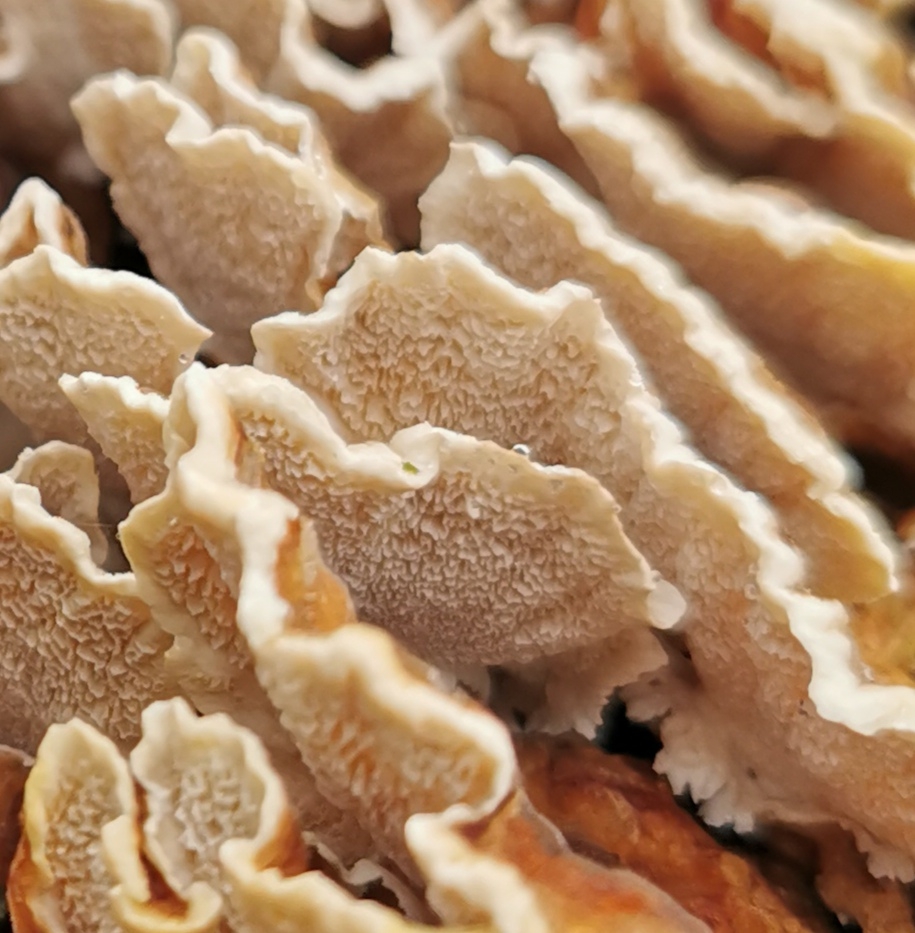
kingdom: Fungi
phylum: Basidiomycota
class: Agaricomycetes
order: Polyporales
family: Polyporaceae
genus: Trametes
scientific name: Trametes ochracea
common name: bæltet læderporesvamp
